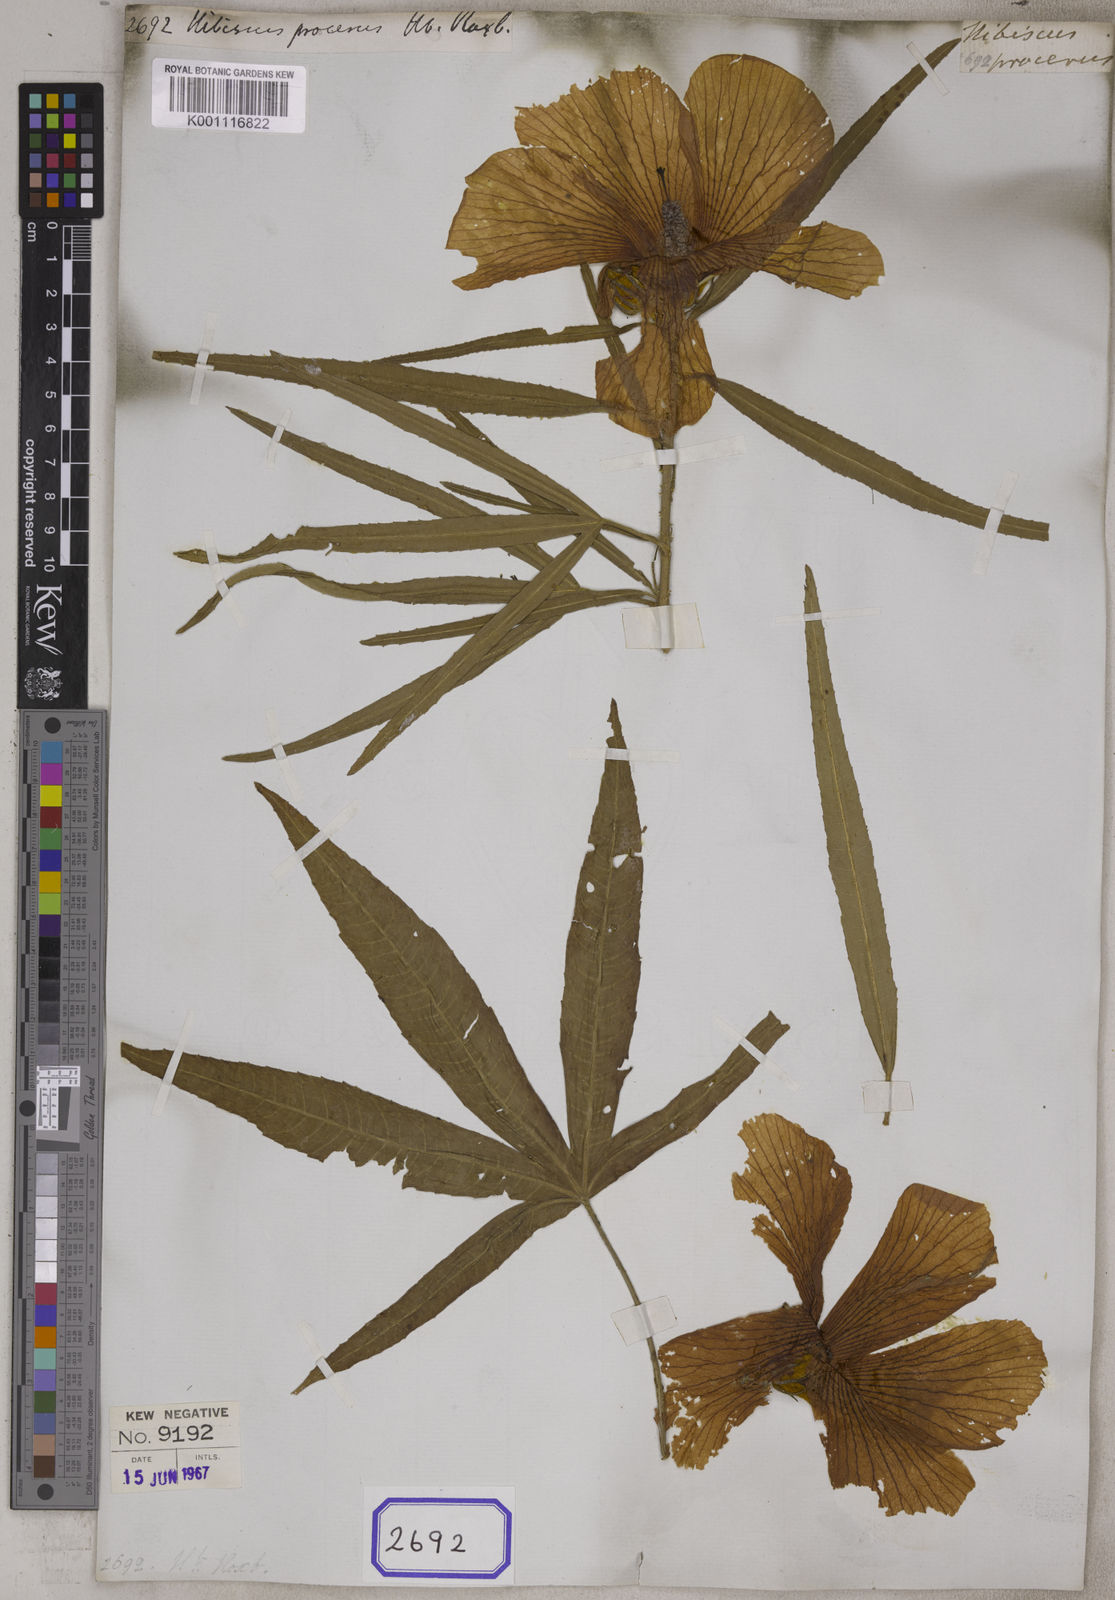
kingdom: Plantae
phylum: Tracheophyta
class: Magnoliopsida
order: Malvales
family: Malvaceae
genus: Hibiscus
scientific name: Hibiscus procerus
